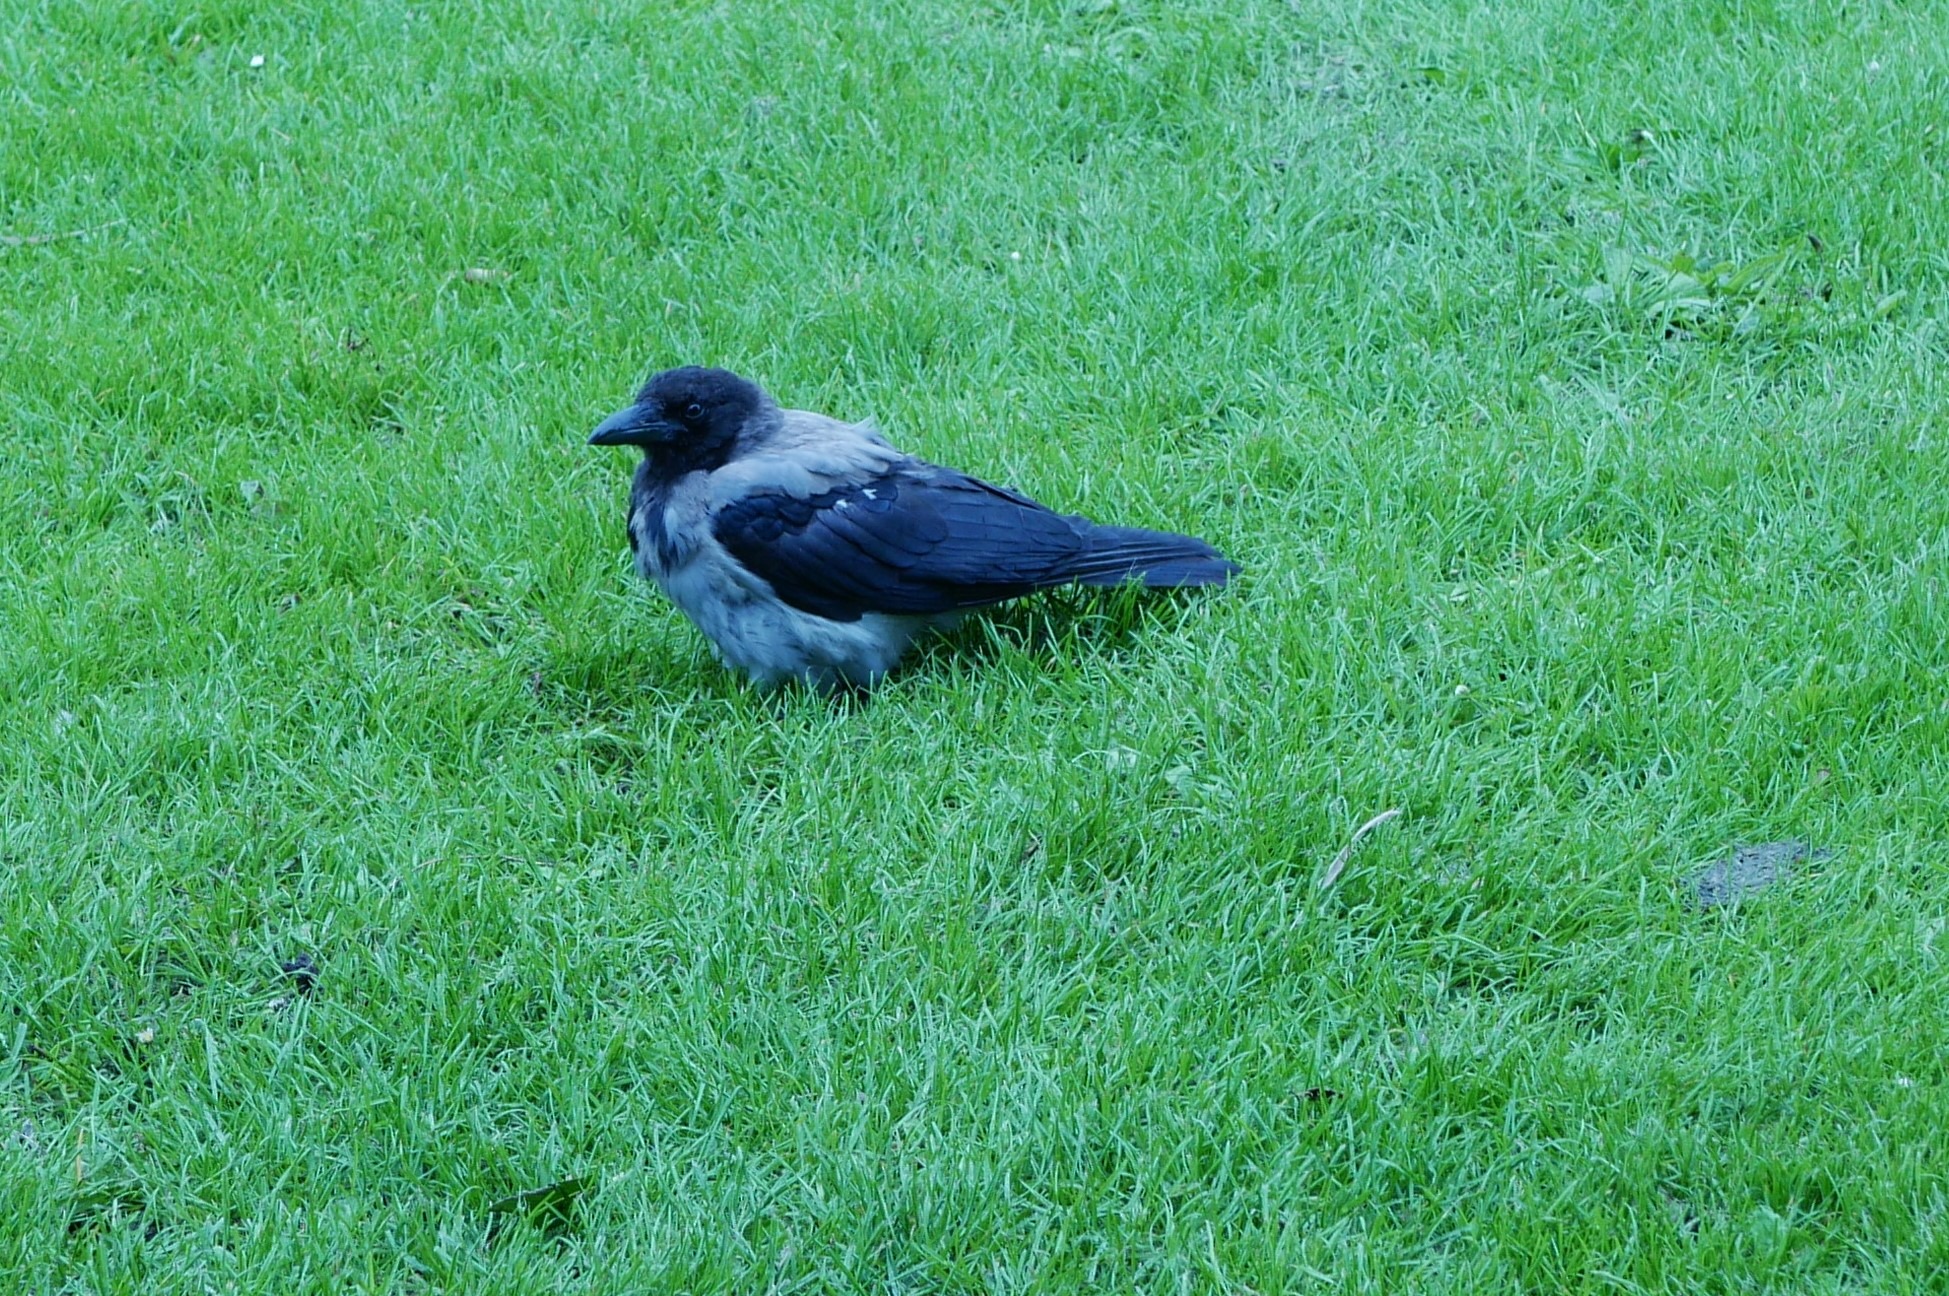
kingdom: Animalia
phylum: Chordata
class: Aves
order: Passeriformes
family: Corvidae
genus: Corvus
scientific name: Corvus cornix
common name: Gråkrage
